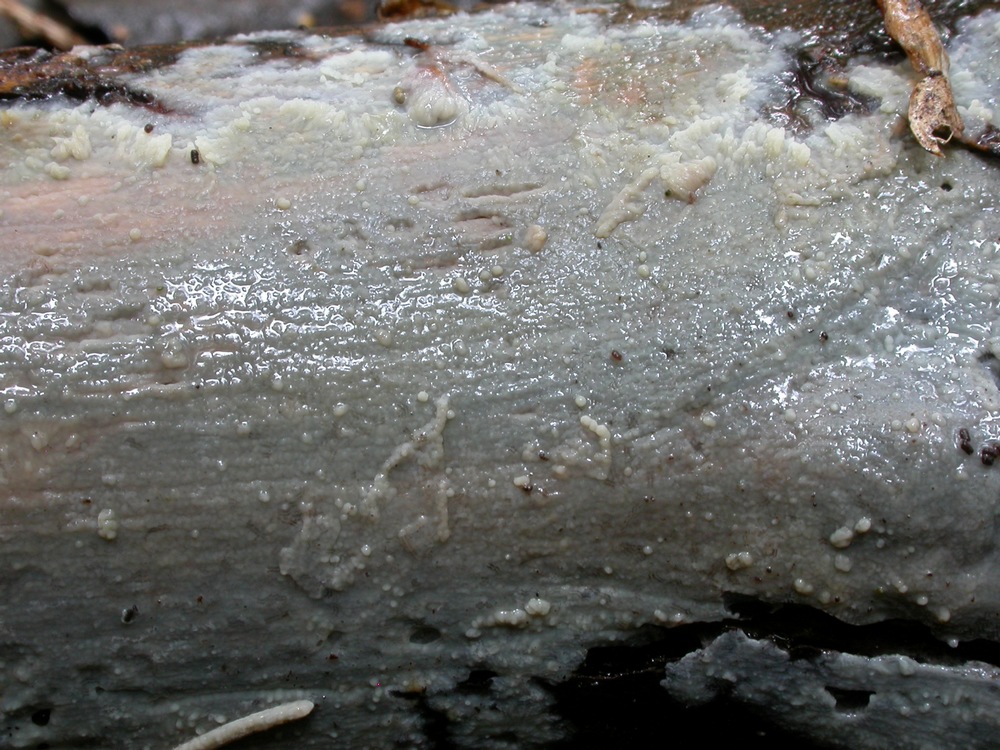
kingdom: Fungi
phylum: Basidiomycota
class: Agaricomycetes
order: Agaricales
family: Radulomycetaceae
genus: Radulomyces
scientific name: Radulomyces confluens
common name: glat naftalinskind
